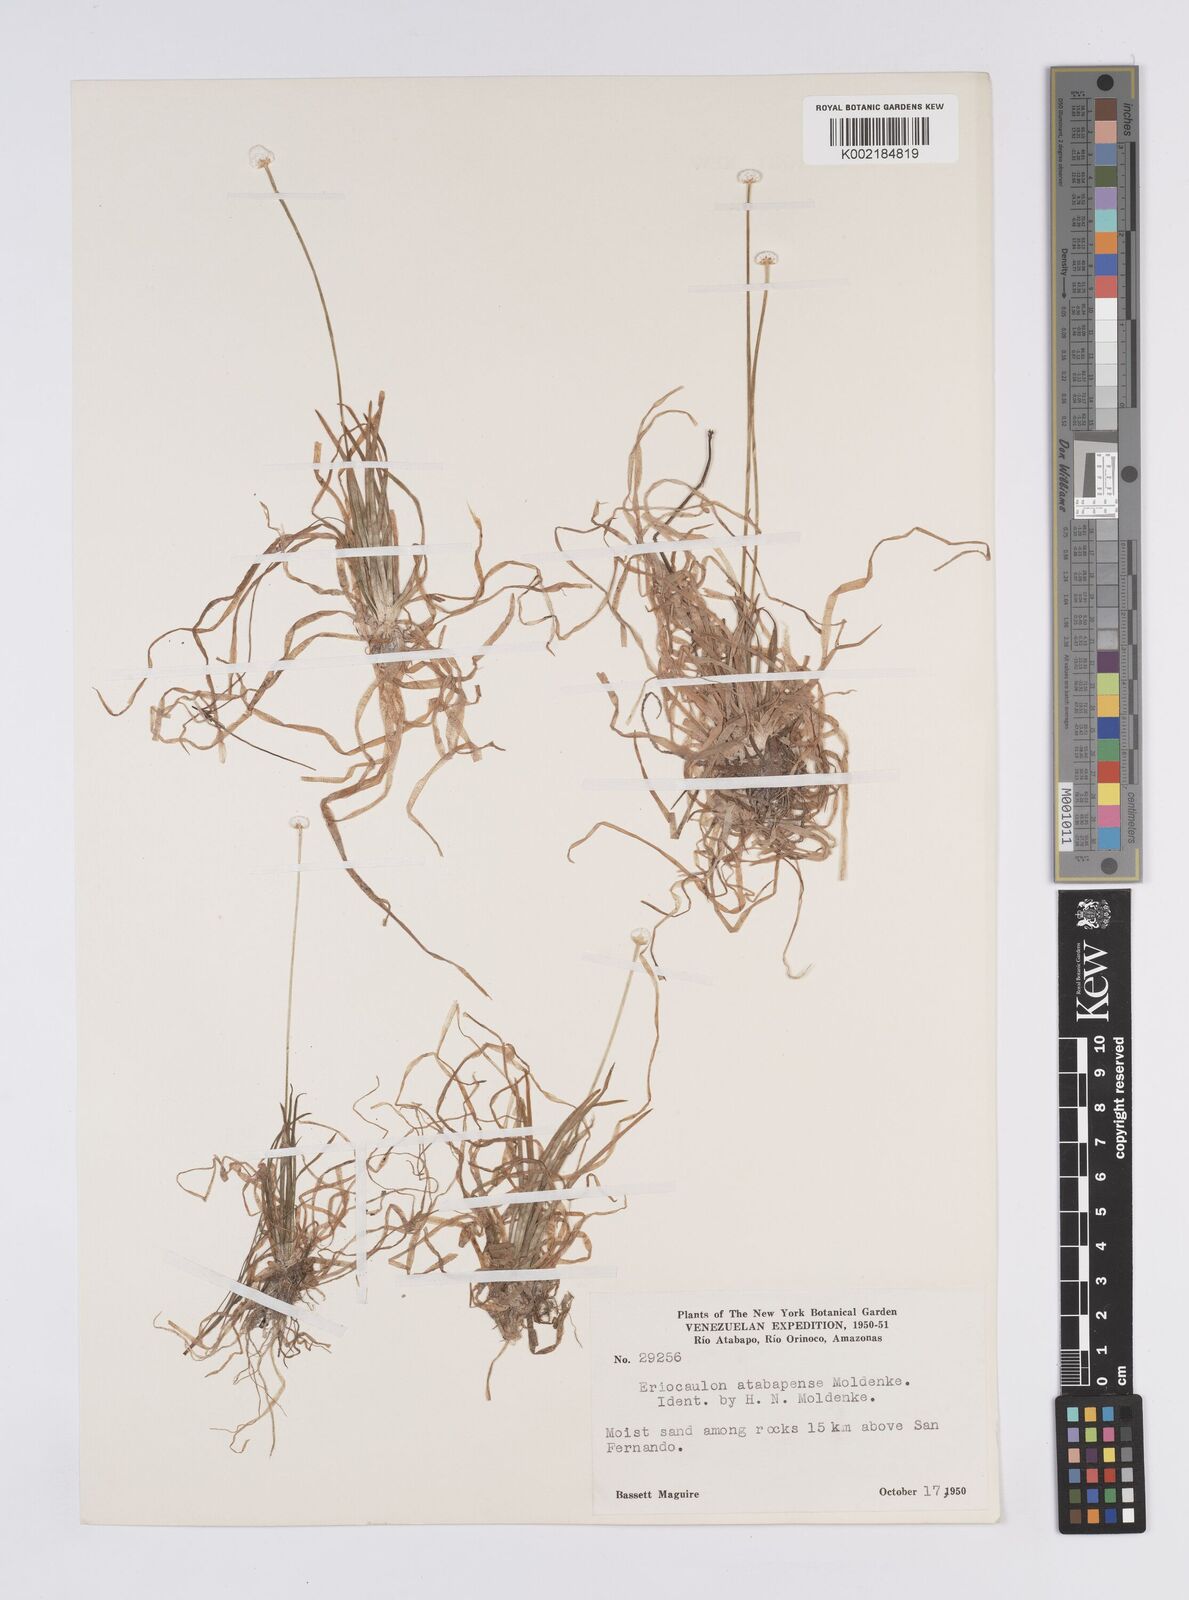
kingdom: Plantae
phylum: Tracheophyta
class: Liliopsida
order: Poales
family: Eriocaulaceae
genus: Eriocaulon
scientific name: Eriocaulon tenuifolium
